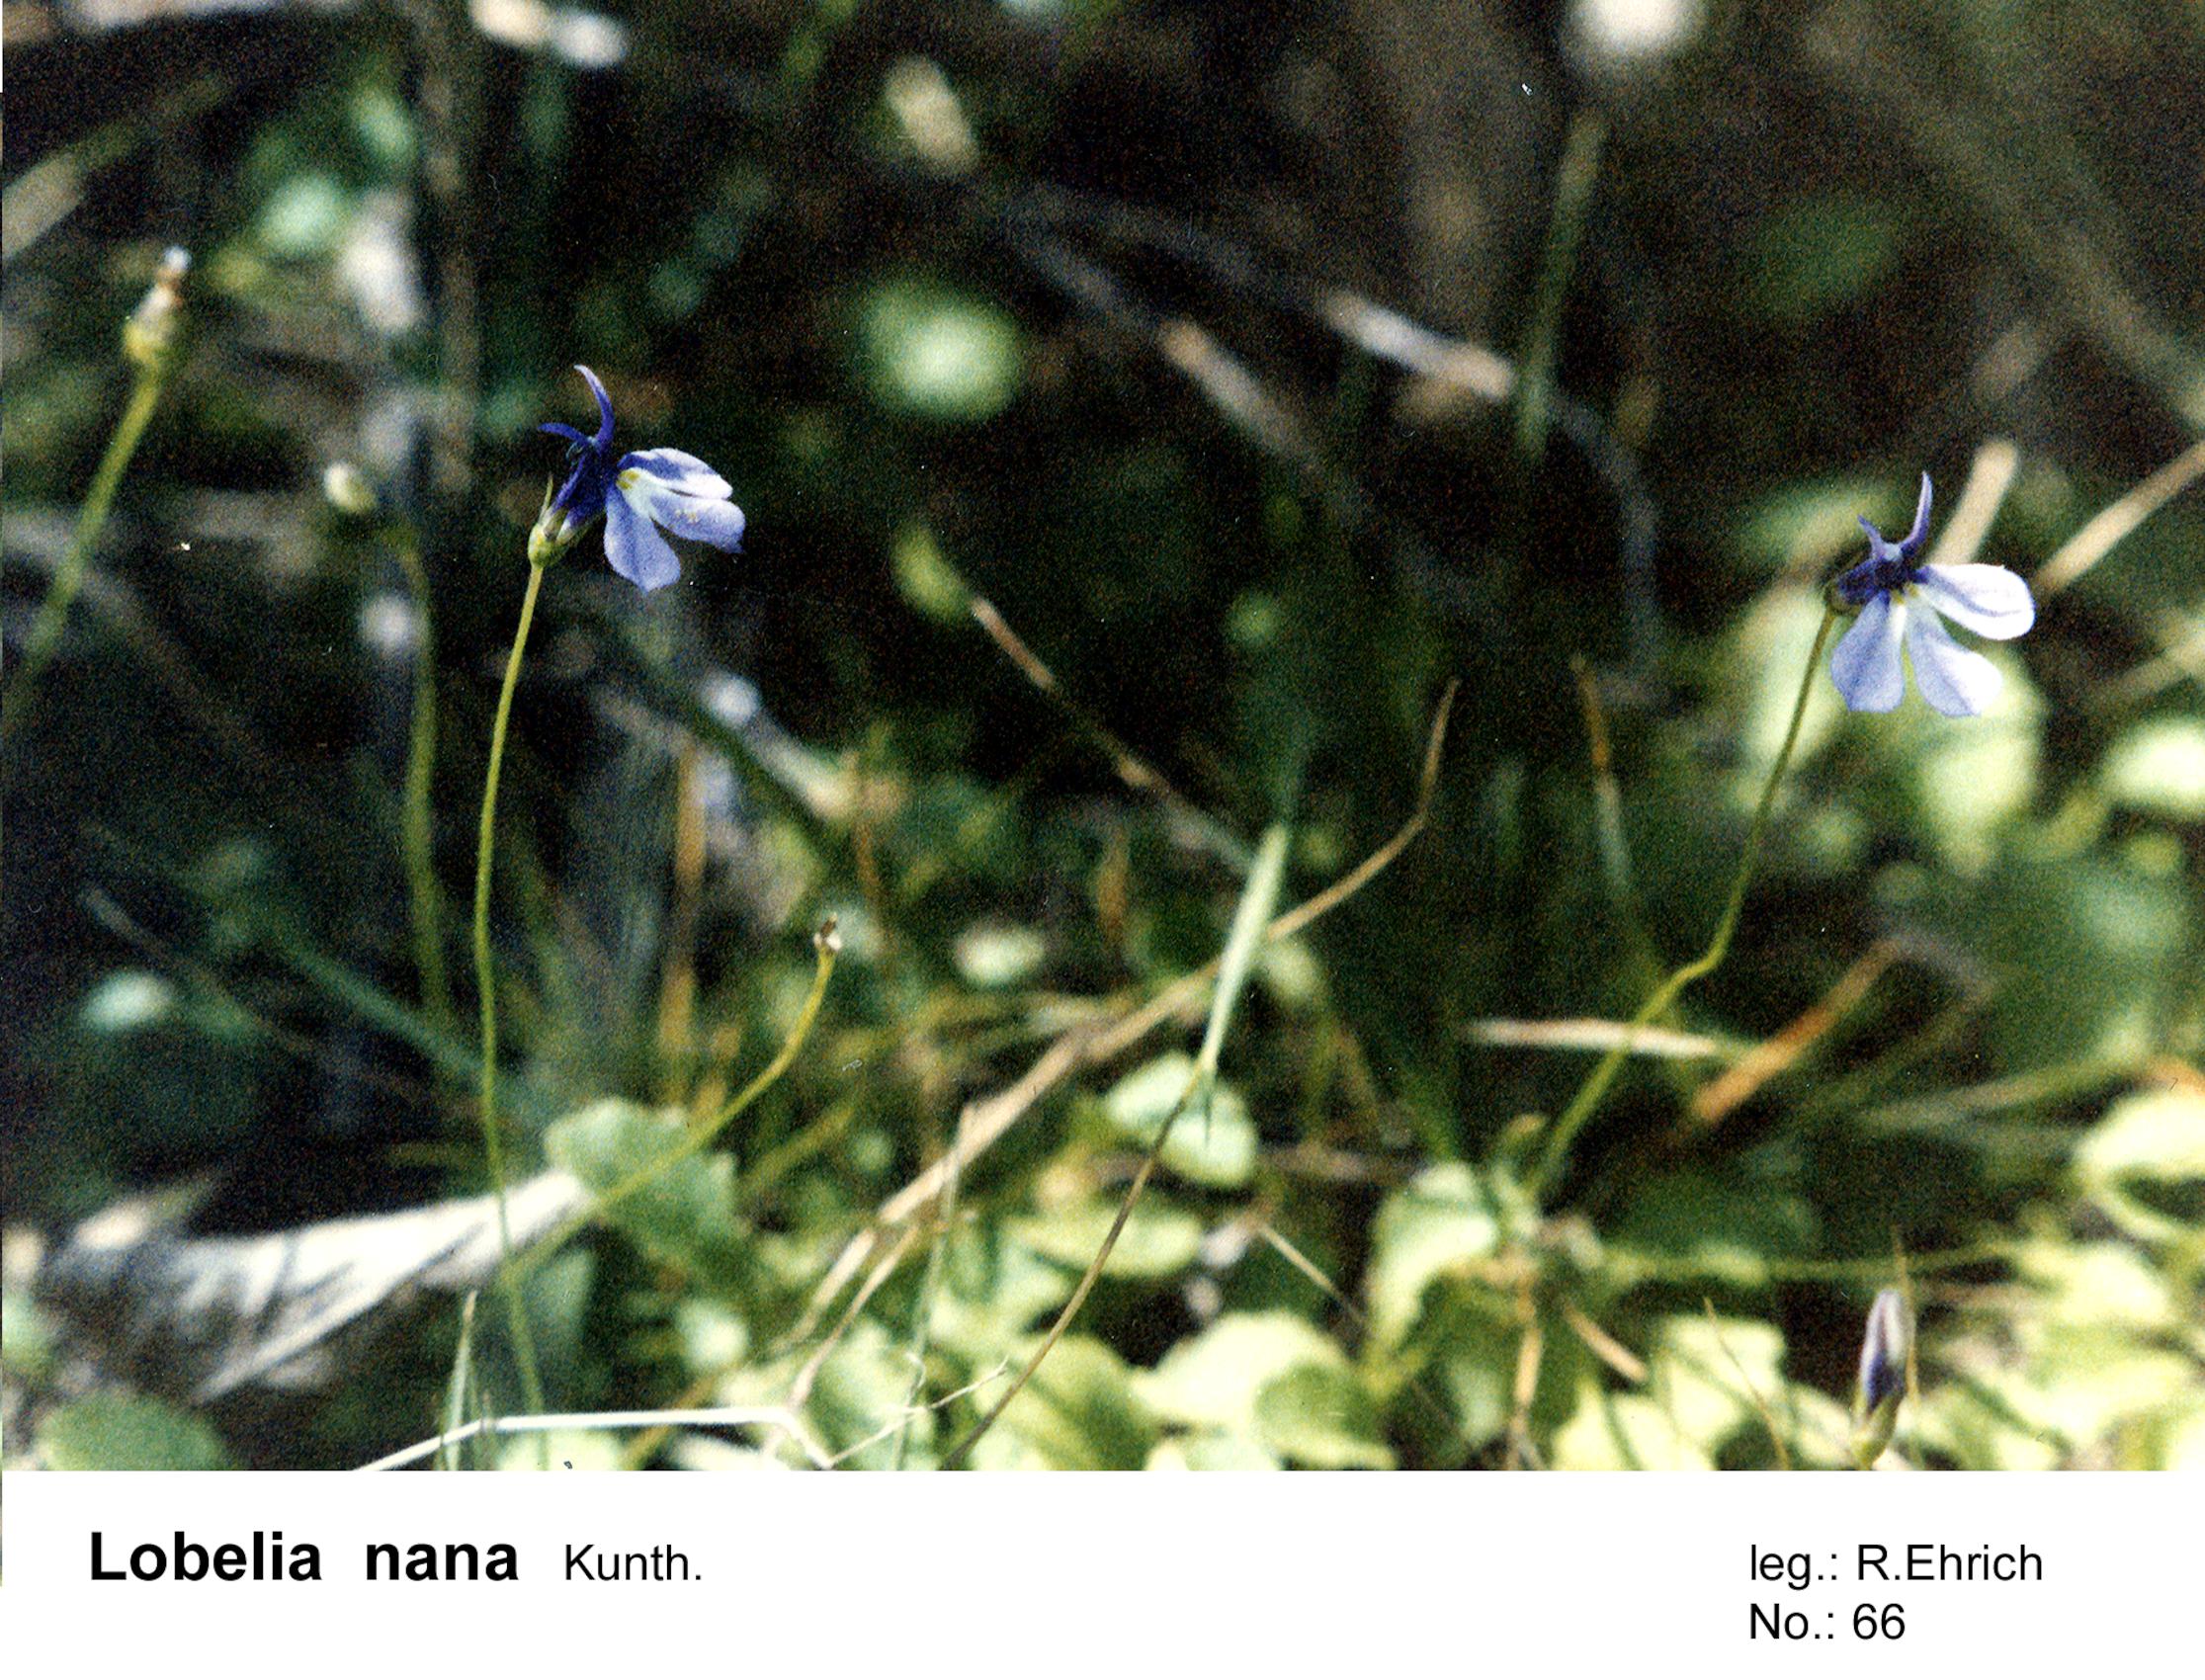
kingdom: Plantae
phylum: Tracheophyta
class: Magnoliopsida
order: Asterales
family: Campanulaceae
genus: Lobelia
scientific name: Lobelia nana
